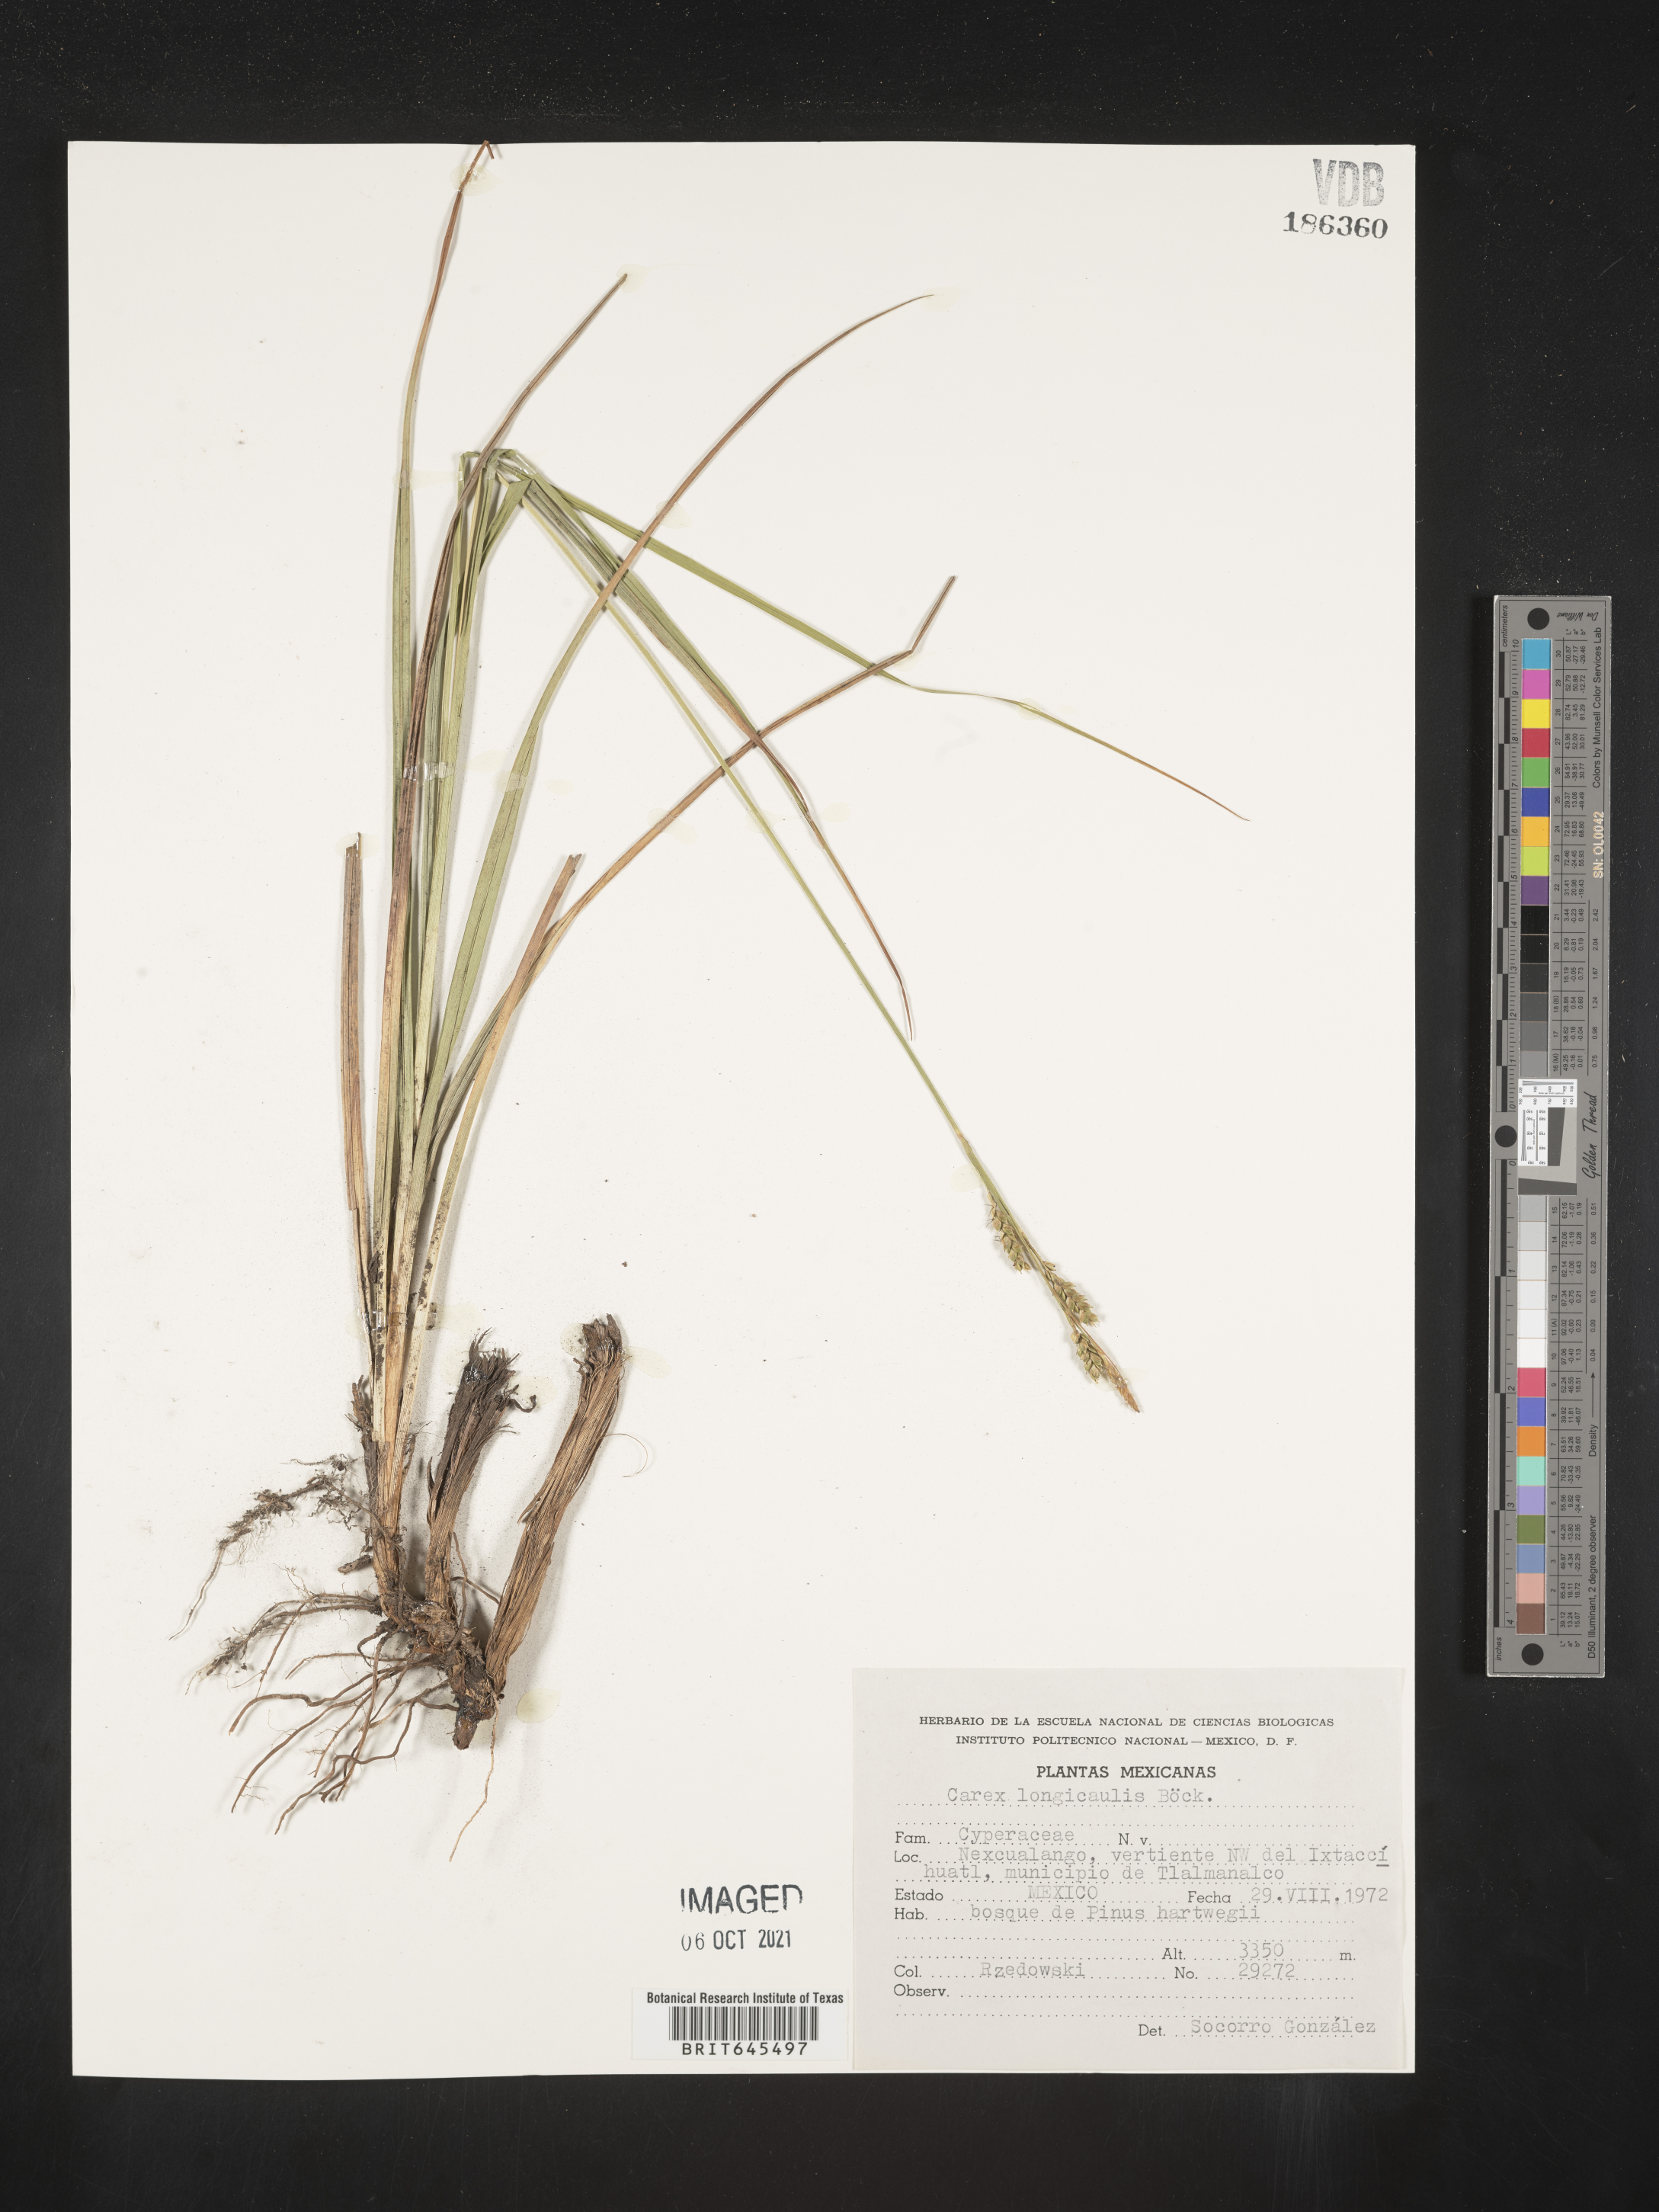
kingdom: Plantae
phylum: Tracheophyta
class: Liliopsida
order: Poales
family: Cyperaceae
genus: Carex
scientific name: Carex
